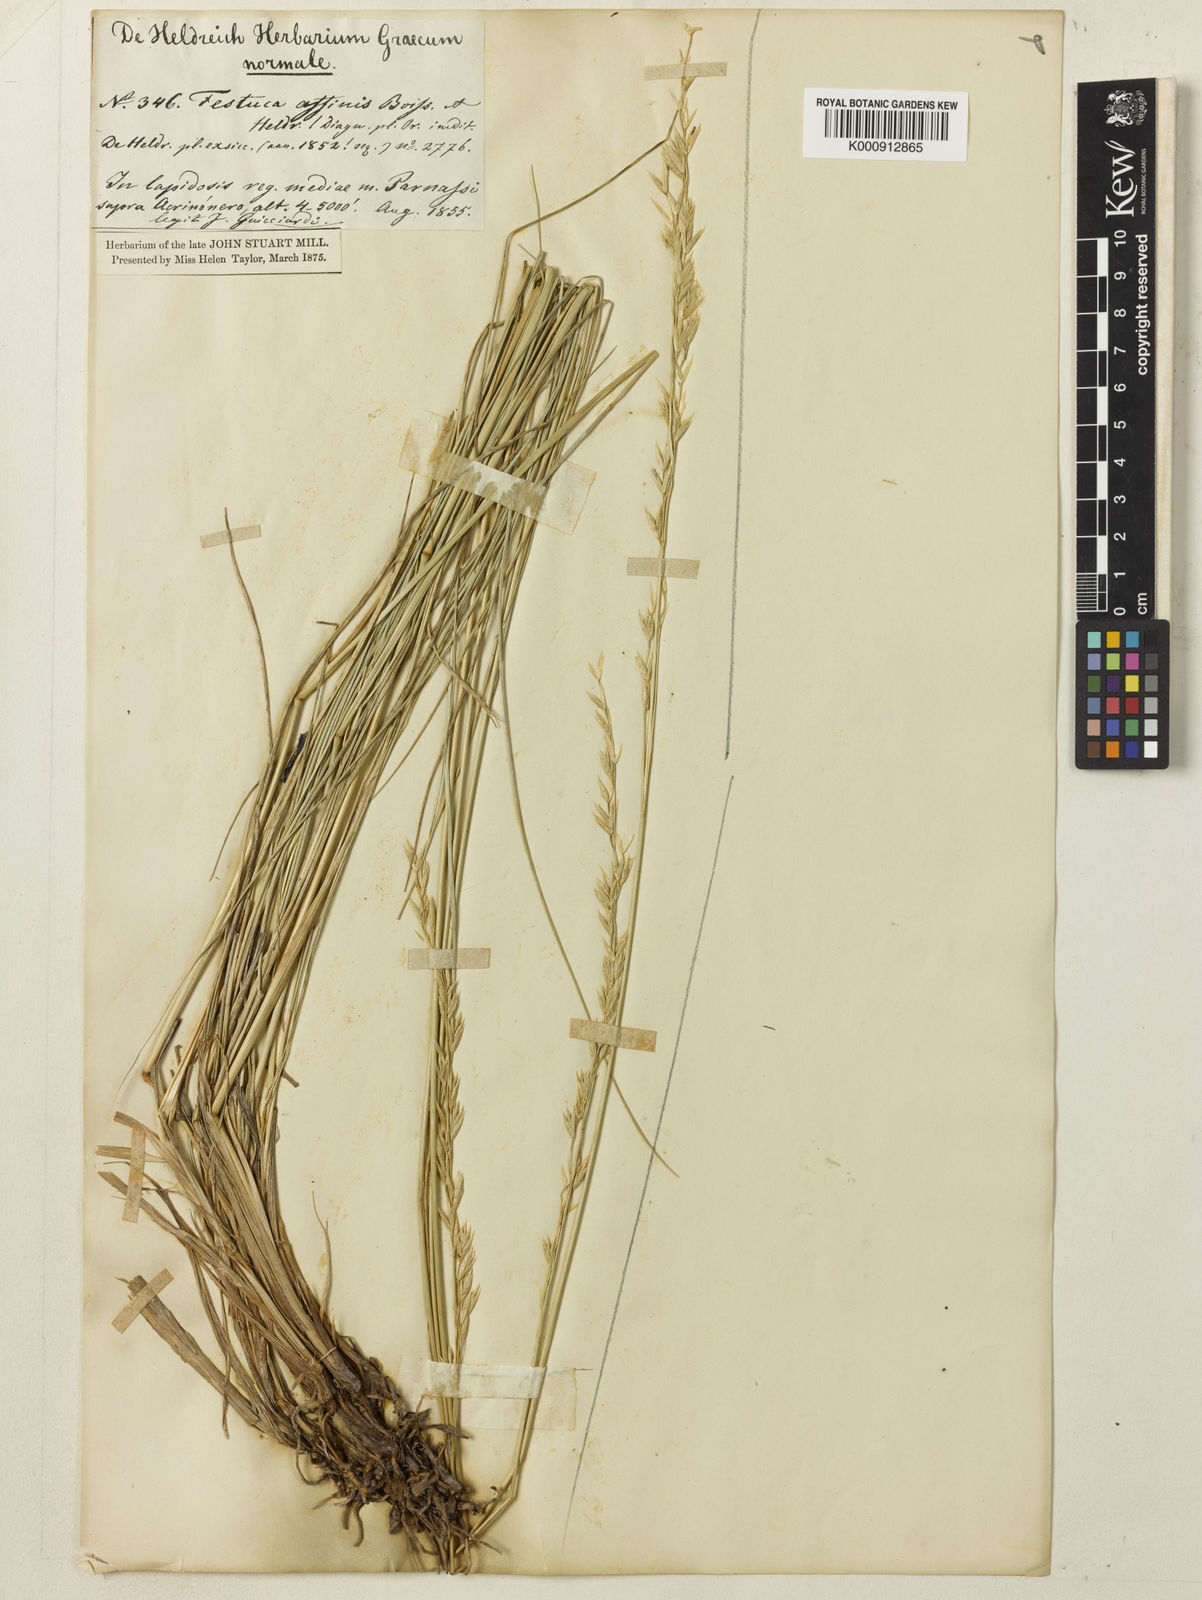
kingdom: Plantae
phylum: Tracheophyta
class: Liliopsida
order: Poales
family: Poaceae
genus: Festuca
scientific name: Festuca
